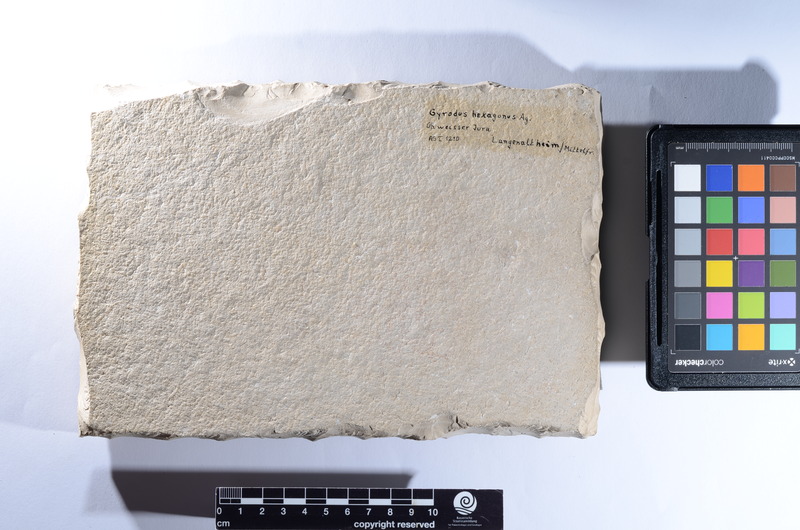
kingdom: Animalia
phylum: Chordata
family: Gyrodontidae
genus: Gyrodus
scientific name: Gyrodus hexagonus
